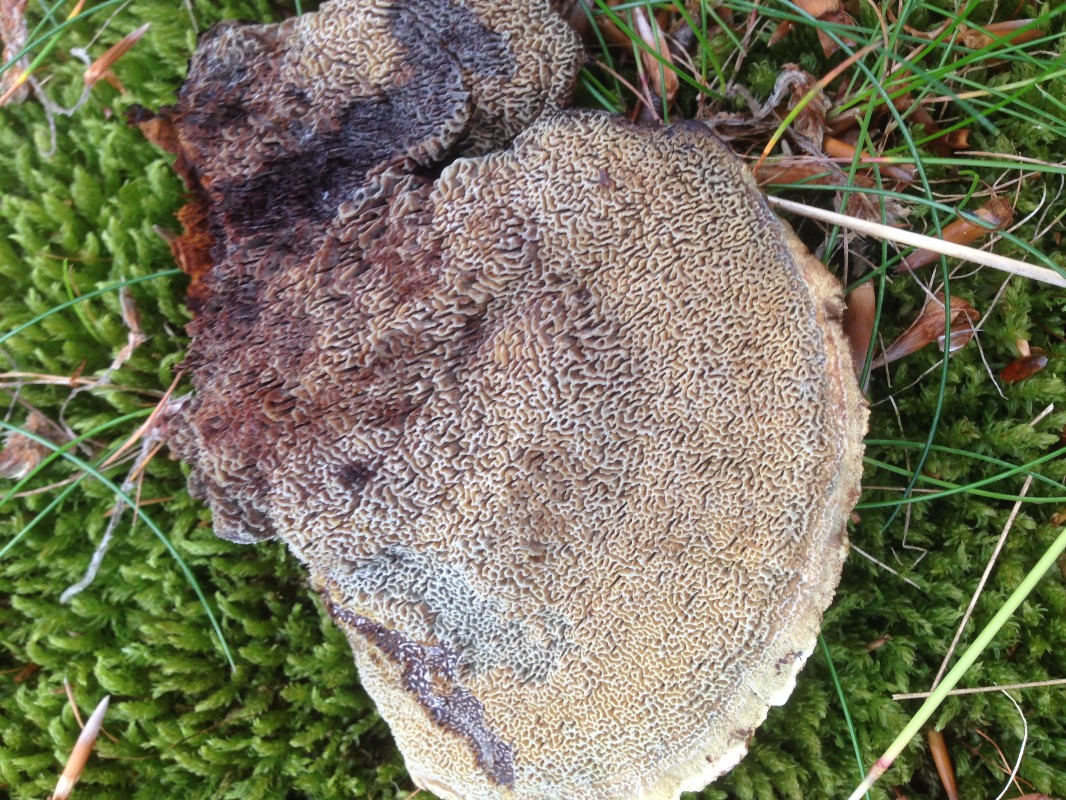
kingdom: Fungi
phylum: Basidiomycota
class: Agaricomycetes
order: Polyporales
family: Laetiporaceae
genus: Phaeolus
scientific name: Phaeolus schweinitzii
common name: brunporesvamp
